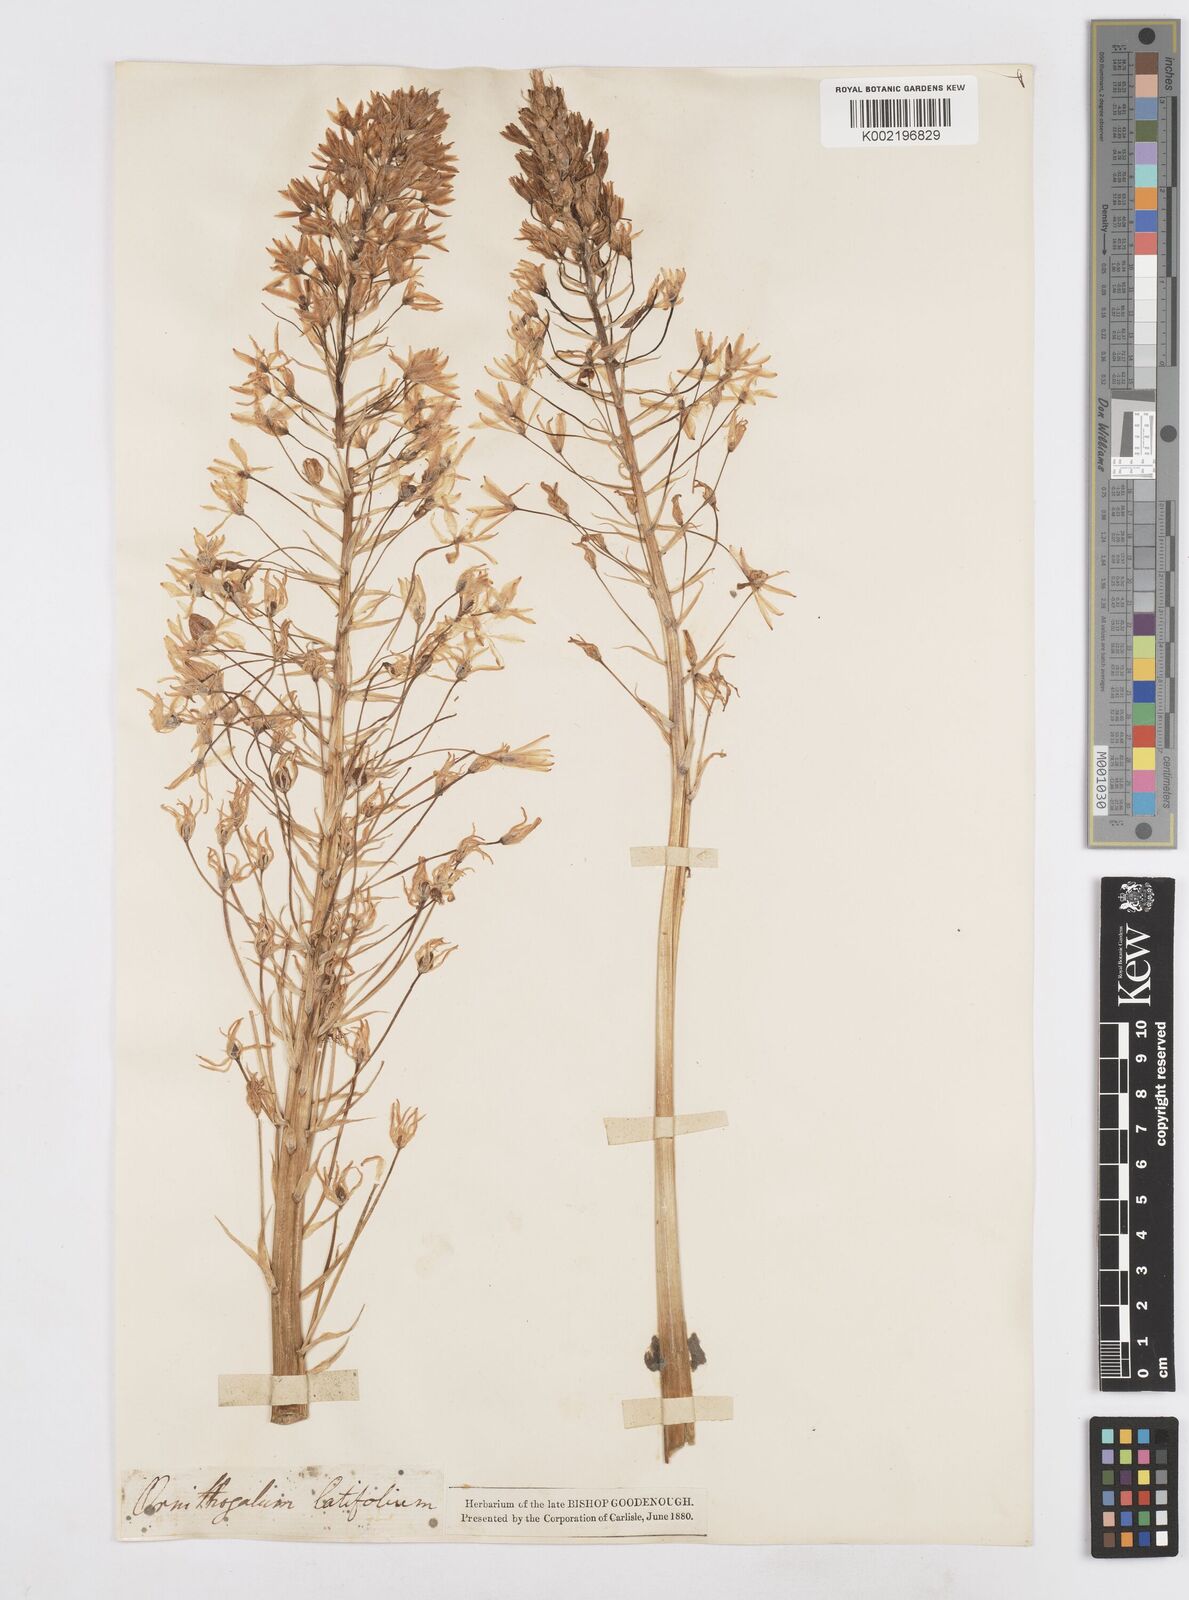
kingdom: Plantae
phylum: Tracheophyta
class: Liliopsida
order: Asparagales
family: Asparagaceae
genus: Ornithogalum
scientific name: Ornithogalum
